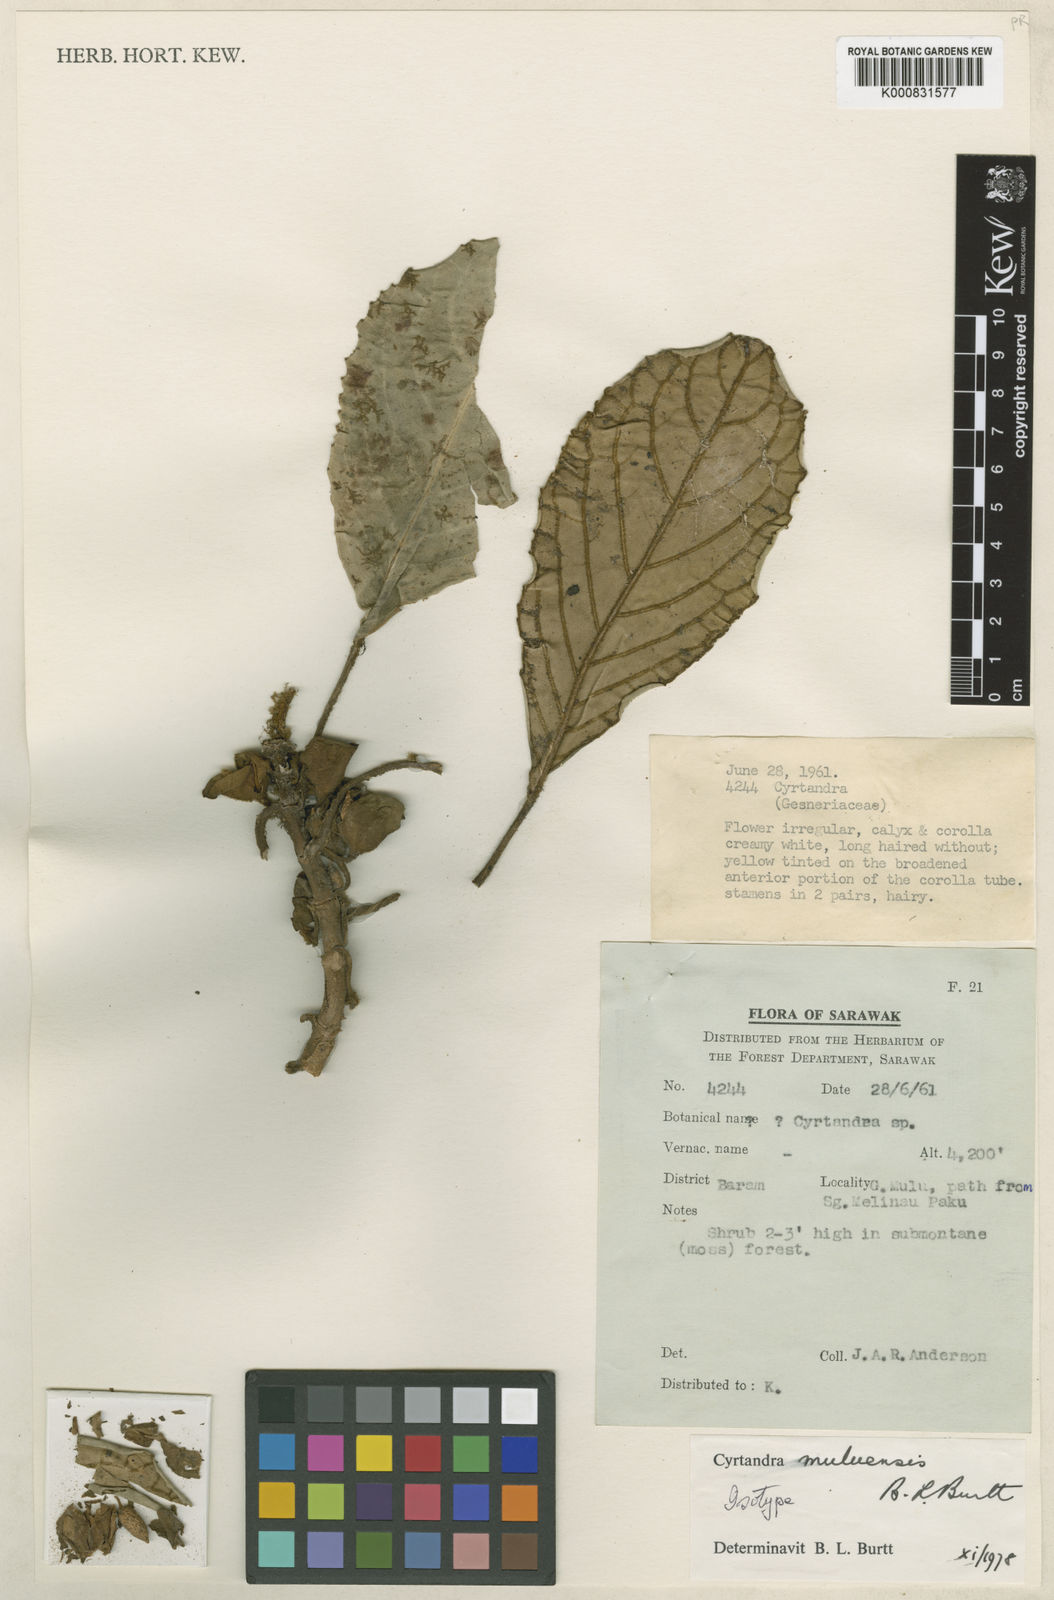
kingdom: Plantae
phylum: Tracheophyta
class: Magnoliopsida
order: Lamiales
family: Gesneriaceae
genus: Cyrtandra
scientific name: Cyrtandra muluensis
